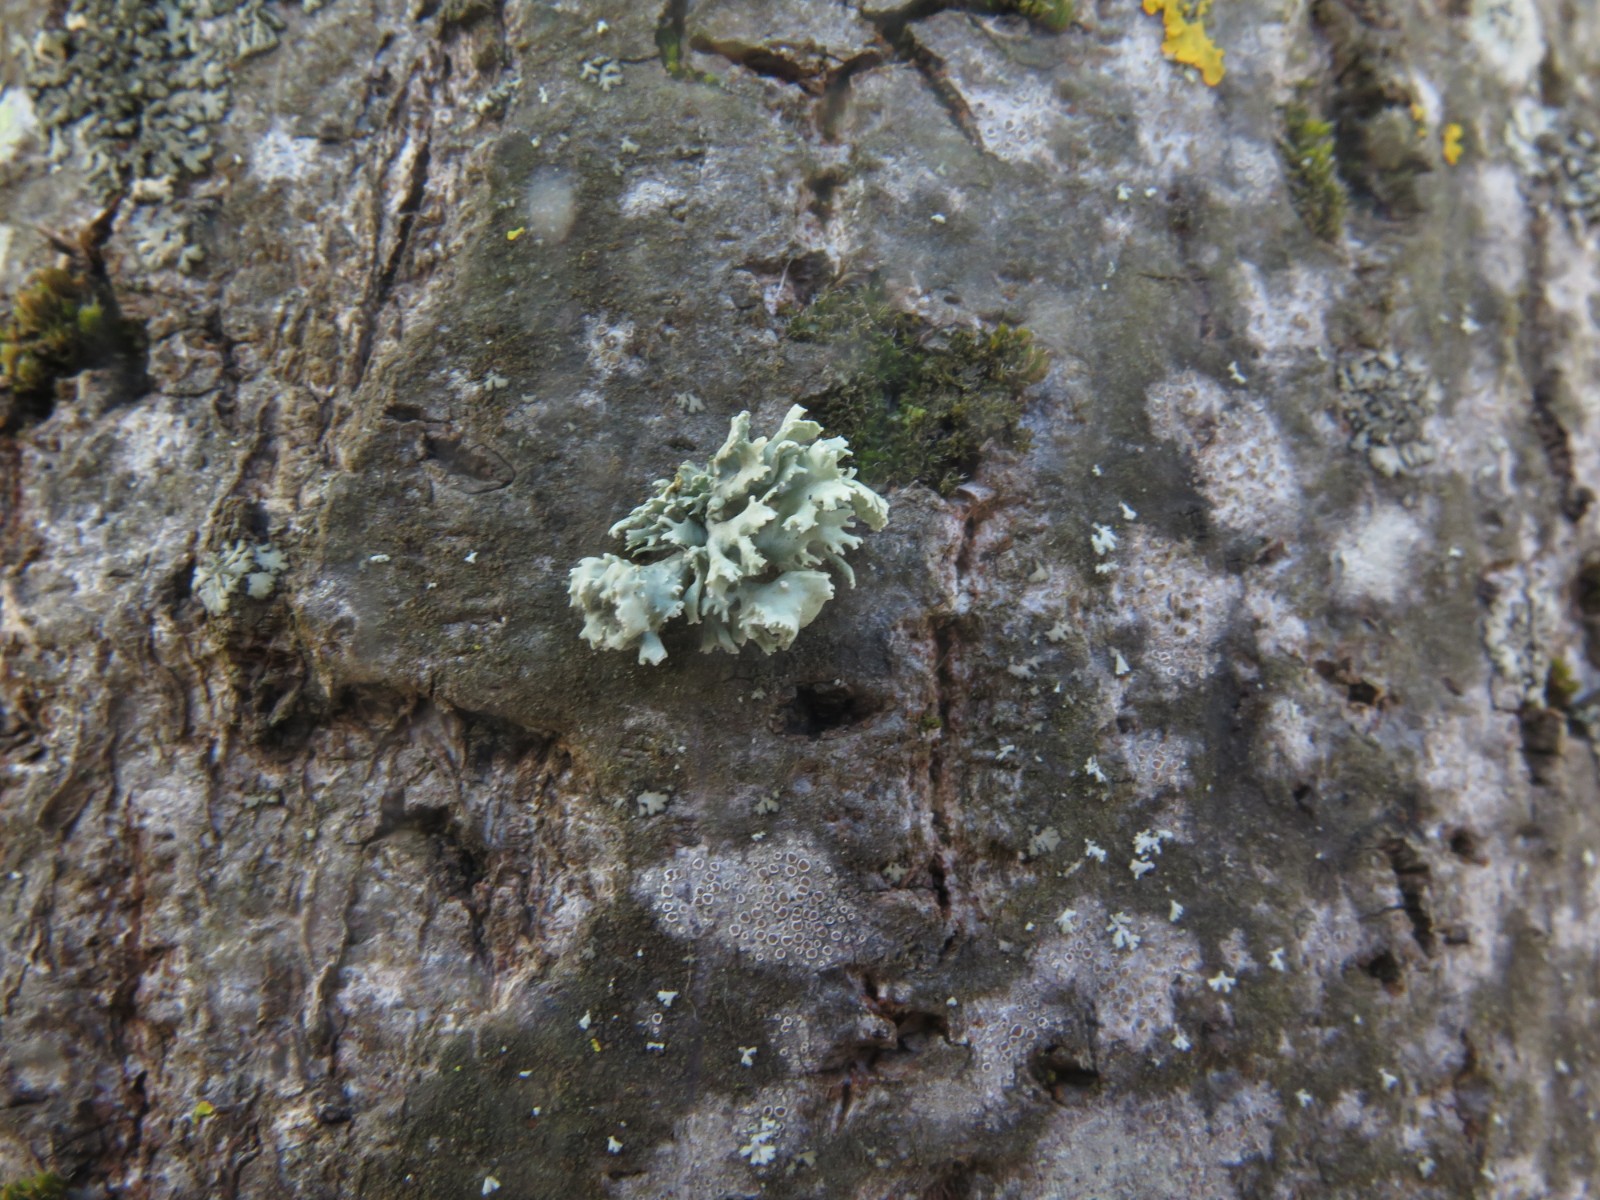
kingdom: Fungi
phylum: Ascomycota
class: Lecanoromycetes
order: Lecanorales
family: Parmeliaceae
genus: Evernia
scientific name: Evernia prunastri
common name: almindelig slåenlav
